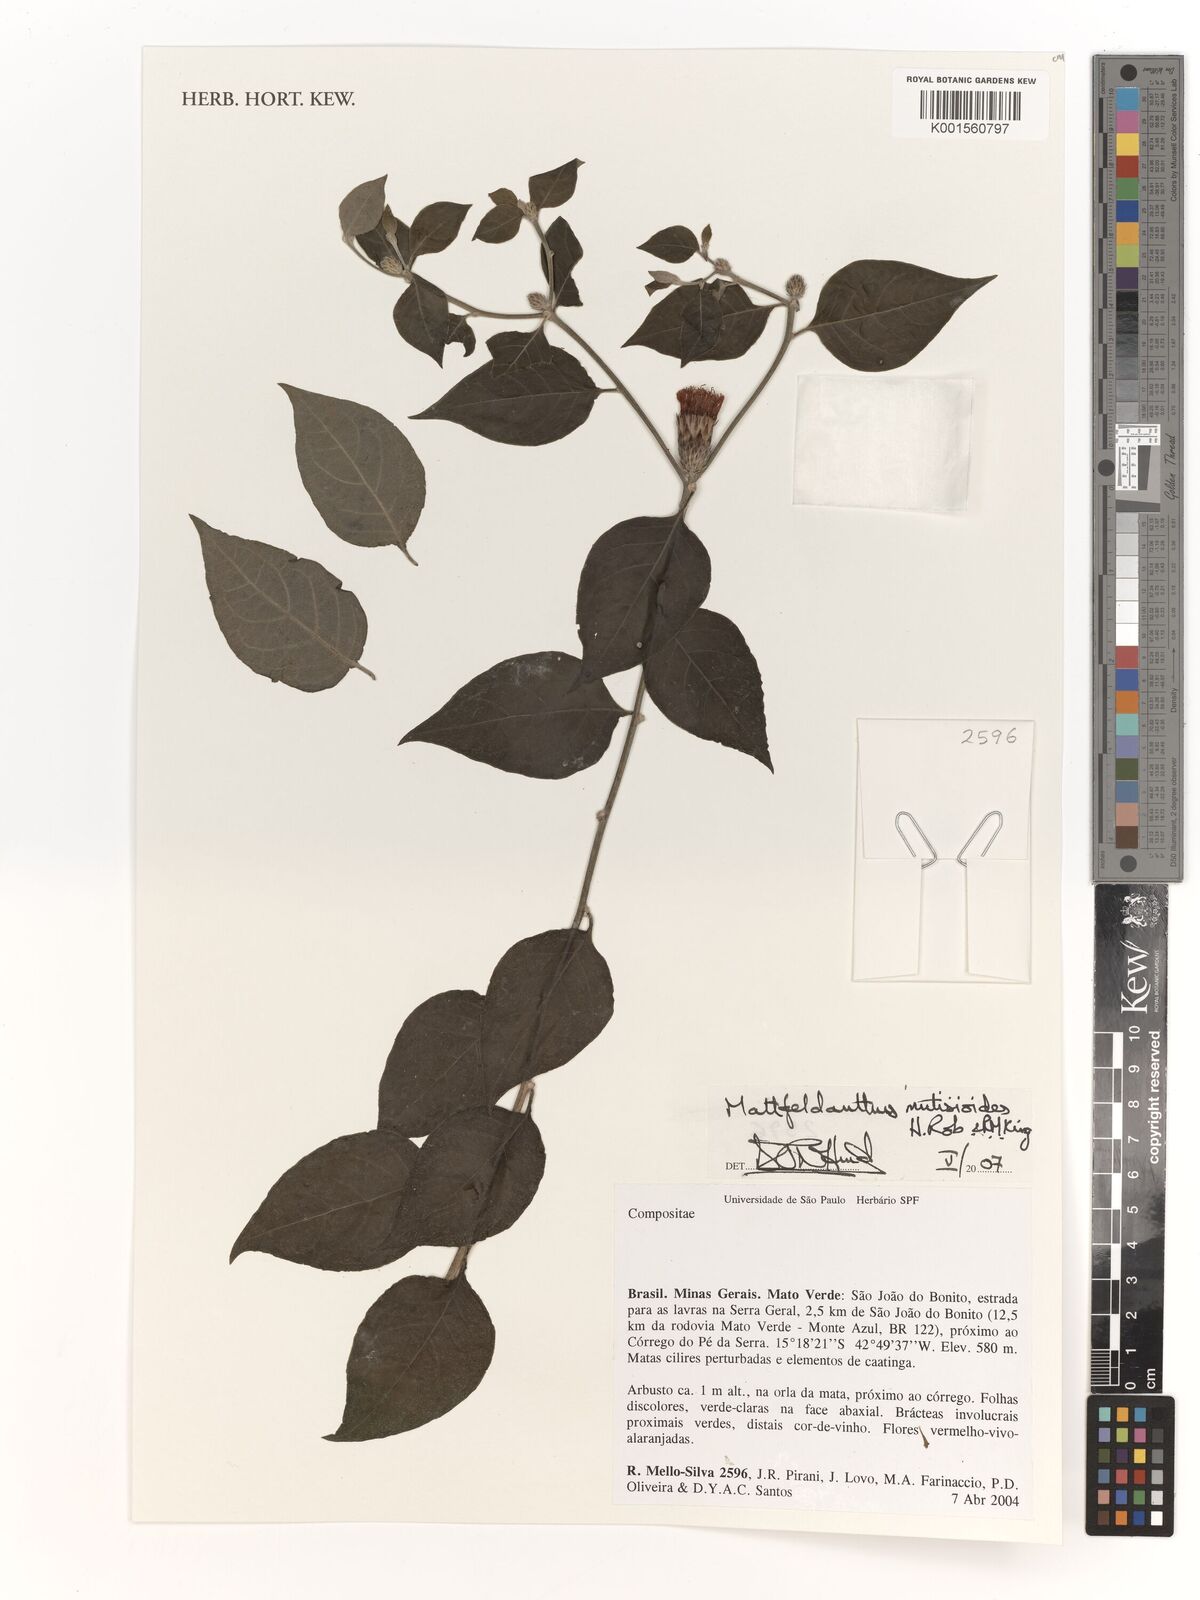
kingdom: Plantae
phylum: Tracheophyta
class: Magnoliopsida
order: Asterales
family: Asteraceae
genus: Mattfeldanthus
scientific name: Mattfeldanthus mutisioides
